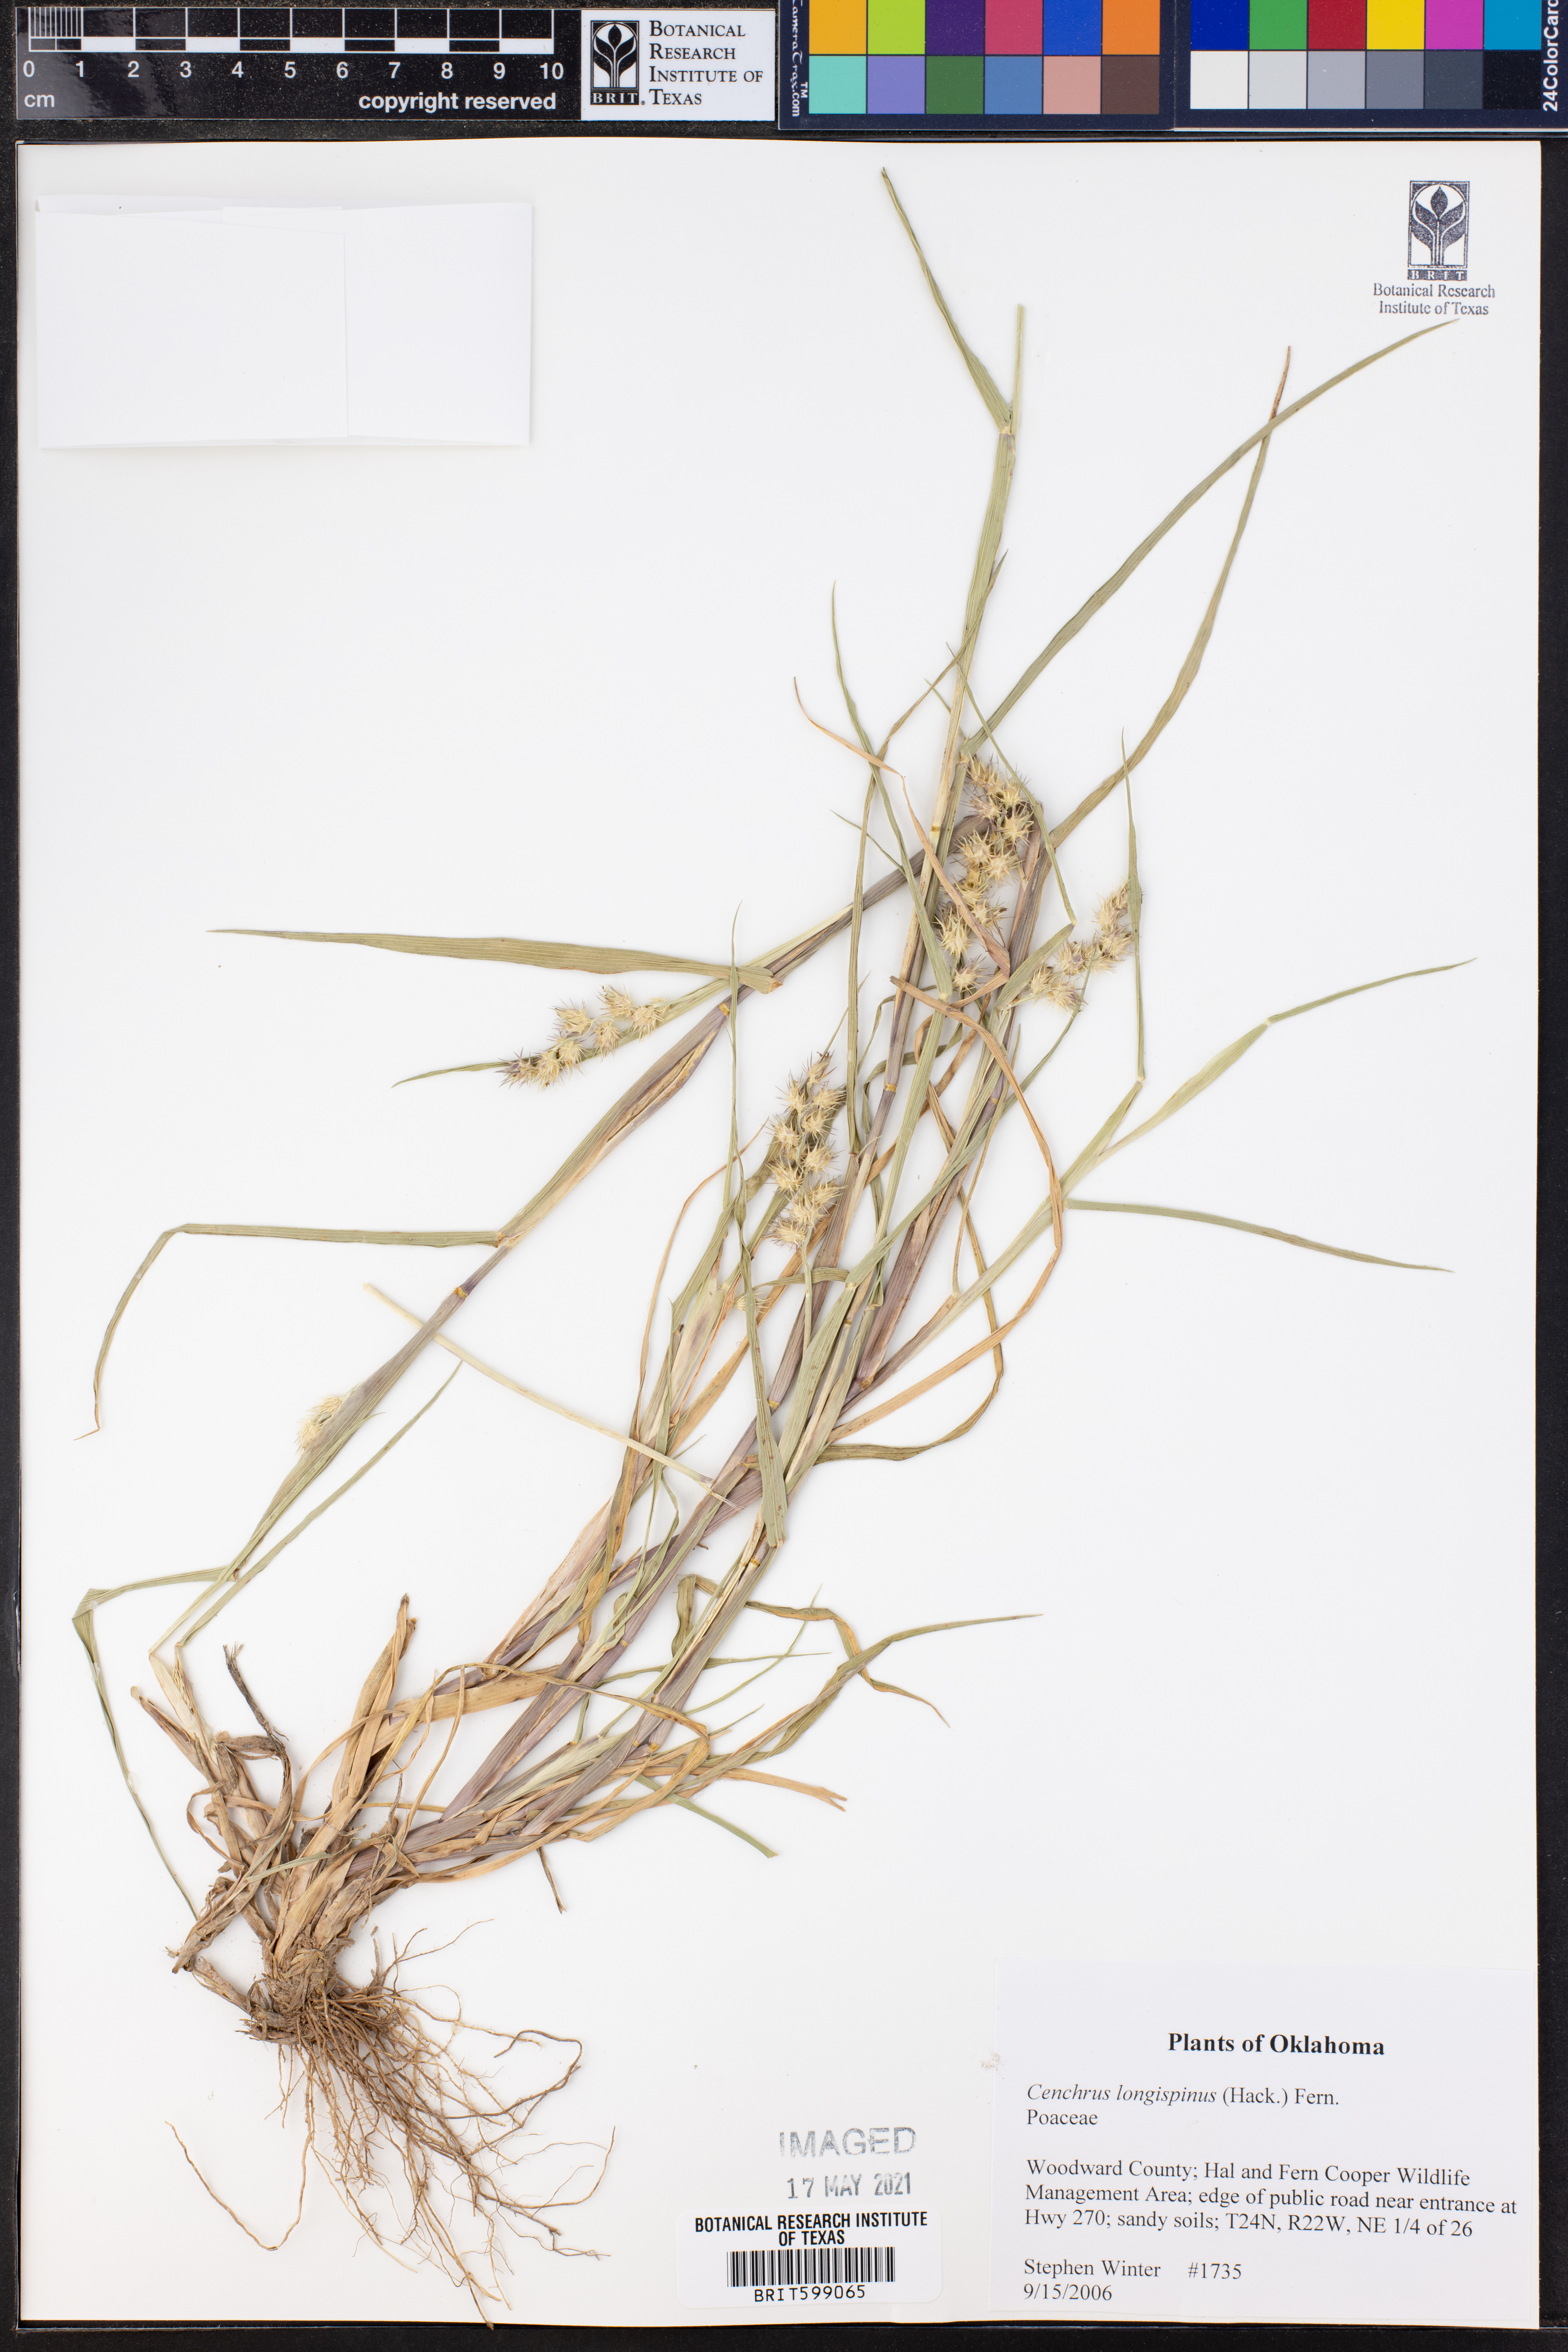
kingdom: Plantae
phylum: Tracheophyta
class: Liliopsida
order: Poales
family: Poaceae
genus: Cenchrus
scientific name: Cenchrus longispinus
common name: Mat sandbur
